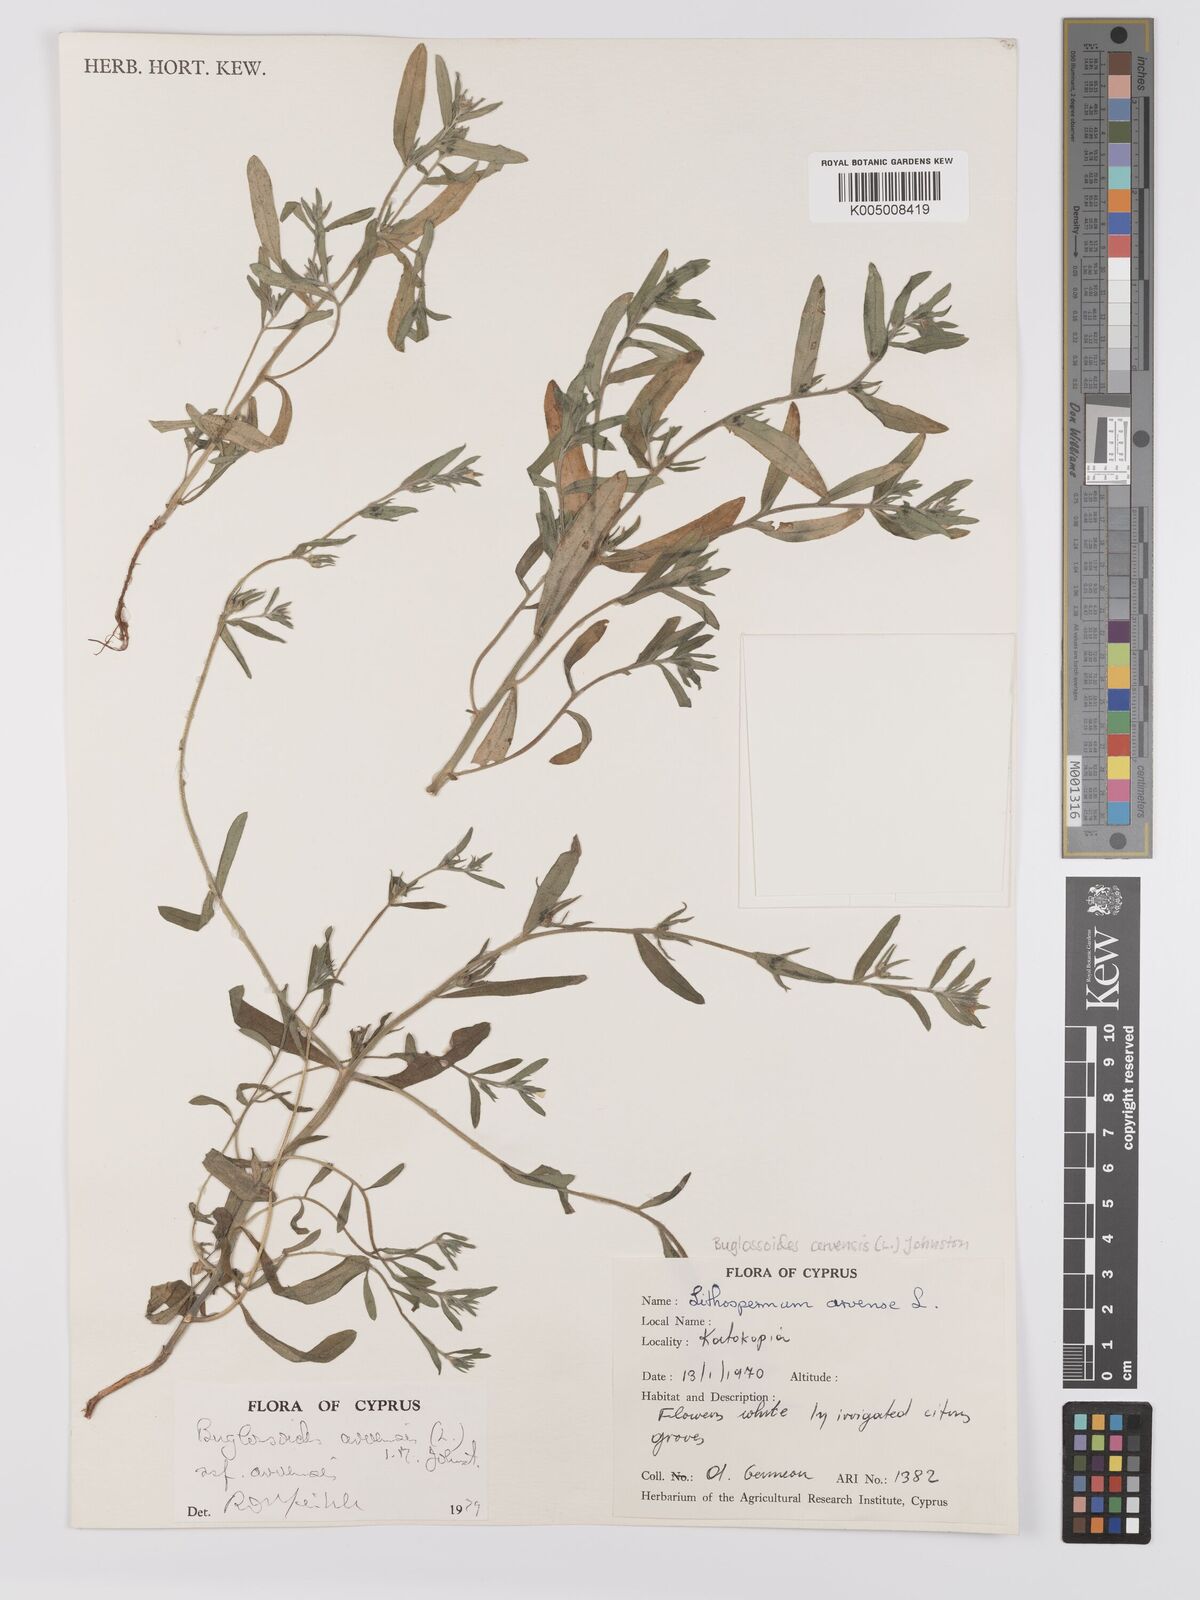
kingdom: Plantae
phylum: Tracheophyta
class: Magnoliopsida
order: Boraginales
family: Boraginaceae
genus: Buglossoides
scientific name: Buglossoides arvensis
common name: Corn gromwell
